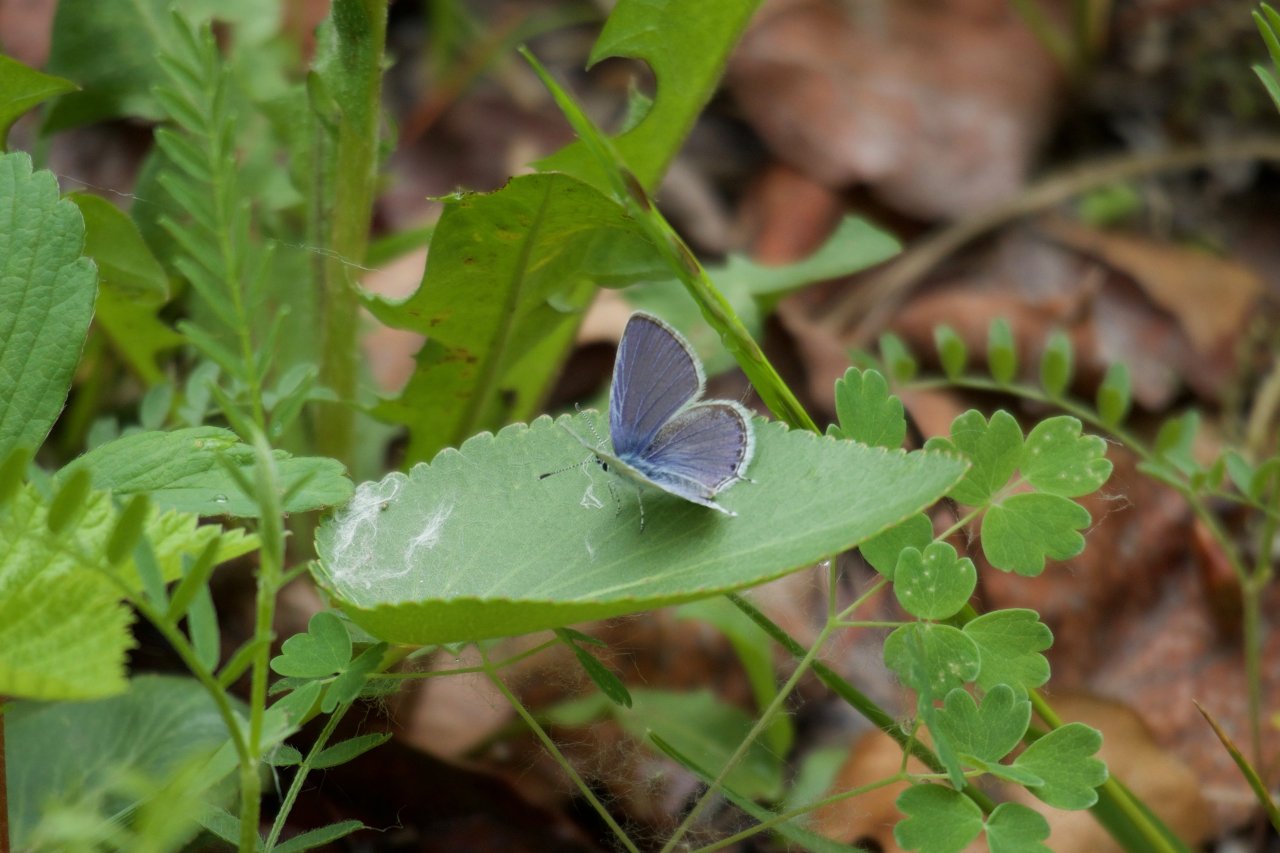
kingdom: Animalia
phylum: Arthropoda
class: Insecta
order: Lepidoptera
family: Lycaenidae
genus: Elkalyce
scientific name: Elkalyce amyntula
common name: Western Tailed-Blue
